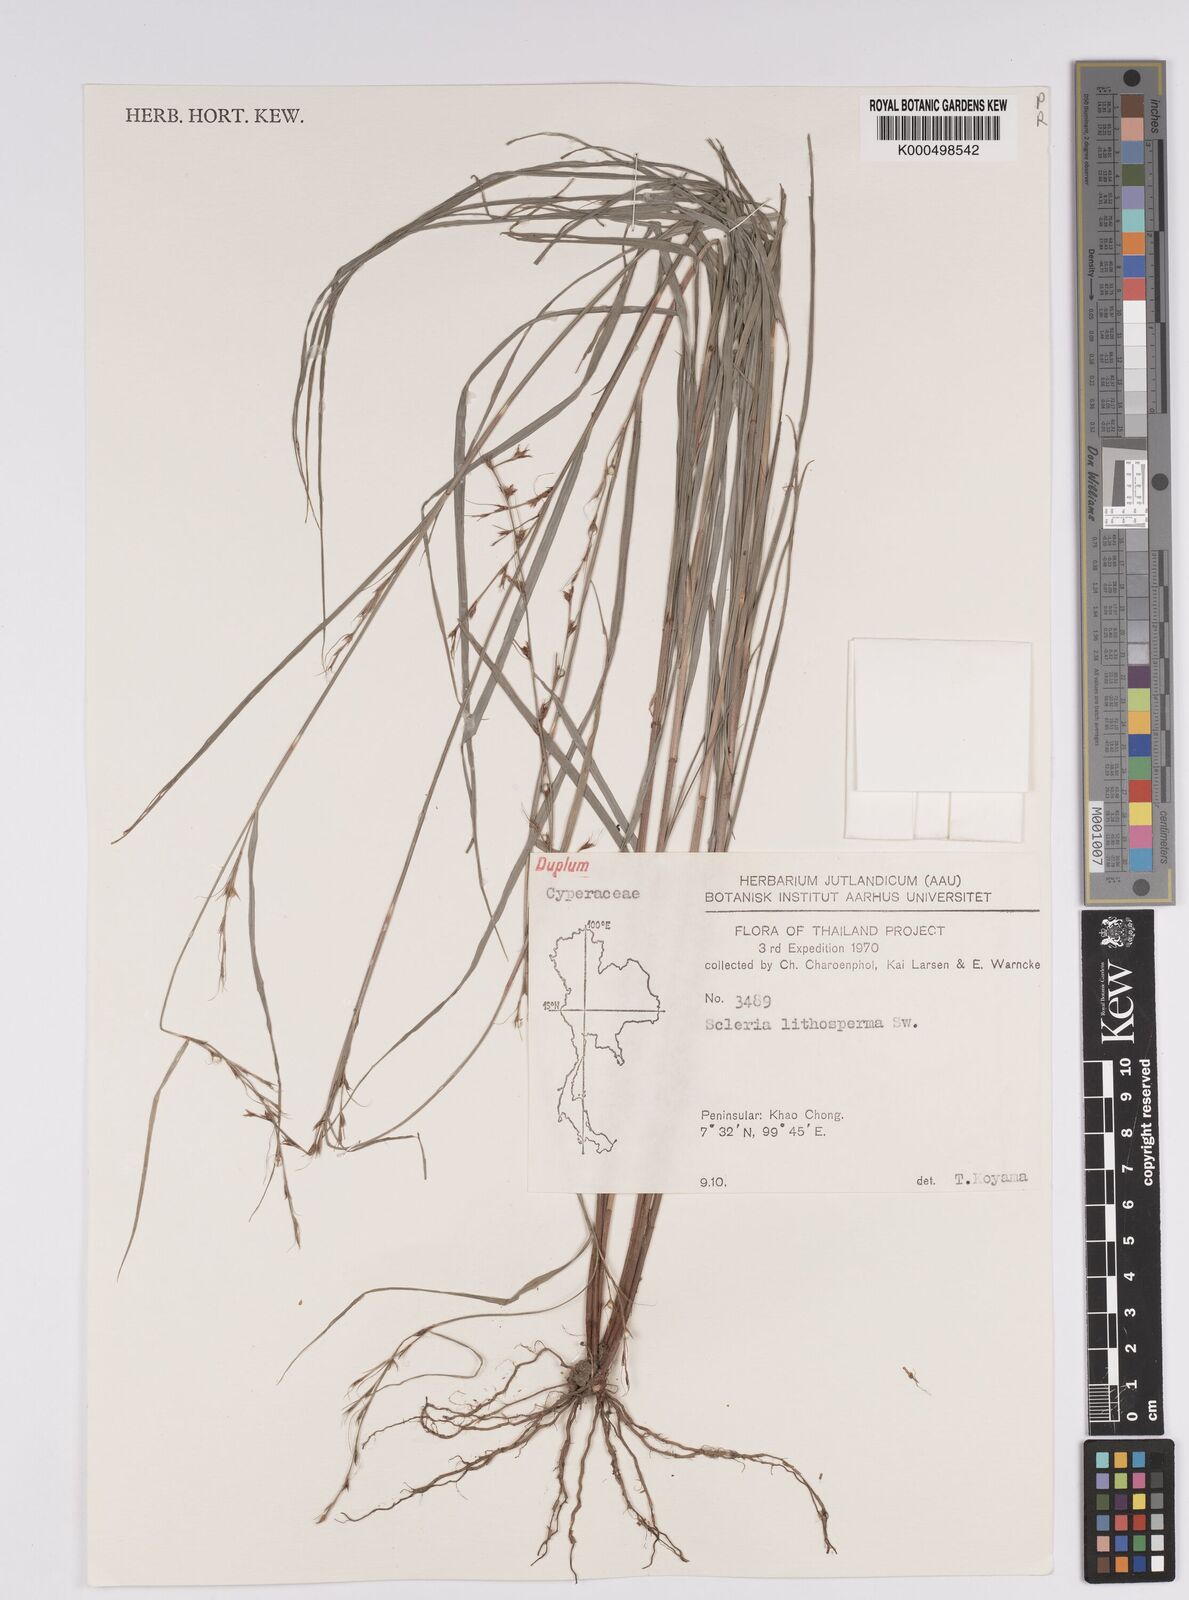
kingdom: Plantae
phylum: Tracheophyta
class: Liliopsida
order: Poales
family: Cyperaceae
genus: Scleria
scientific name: Scleria lithosperma
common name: Florida keys nut-rush
